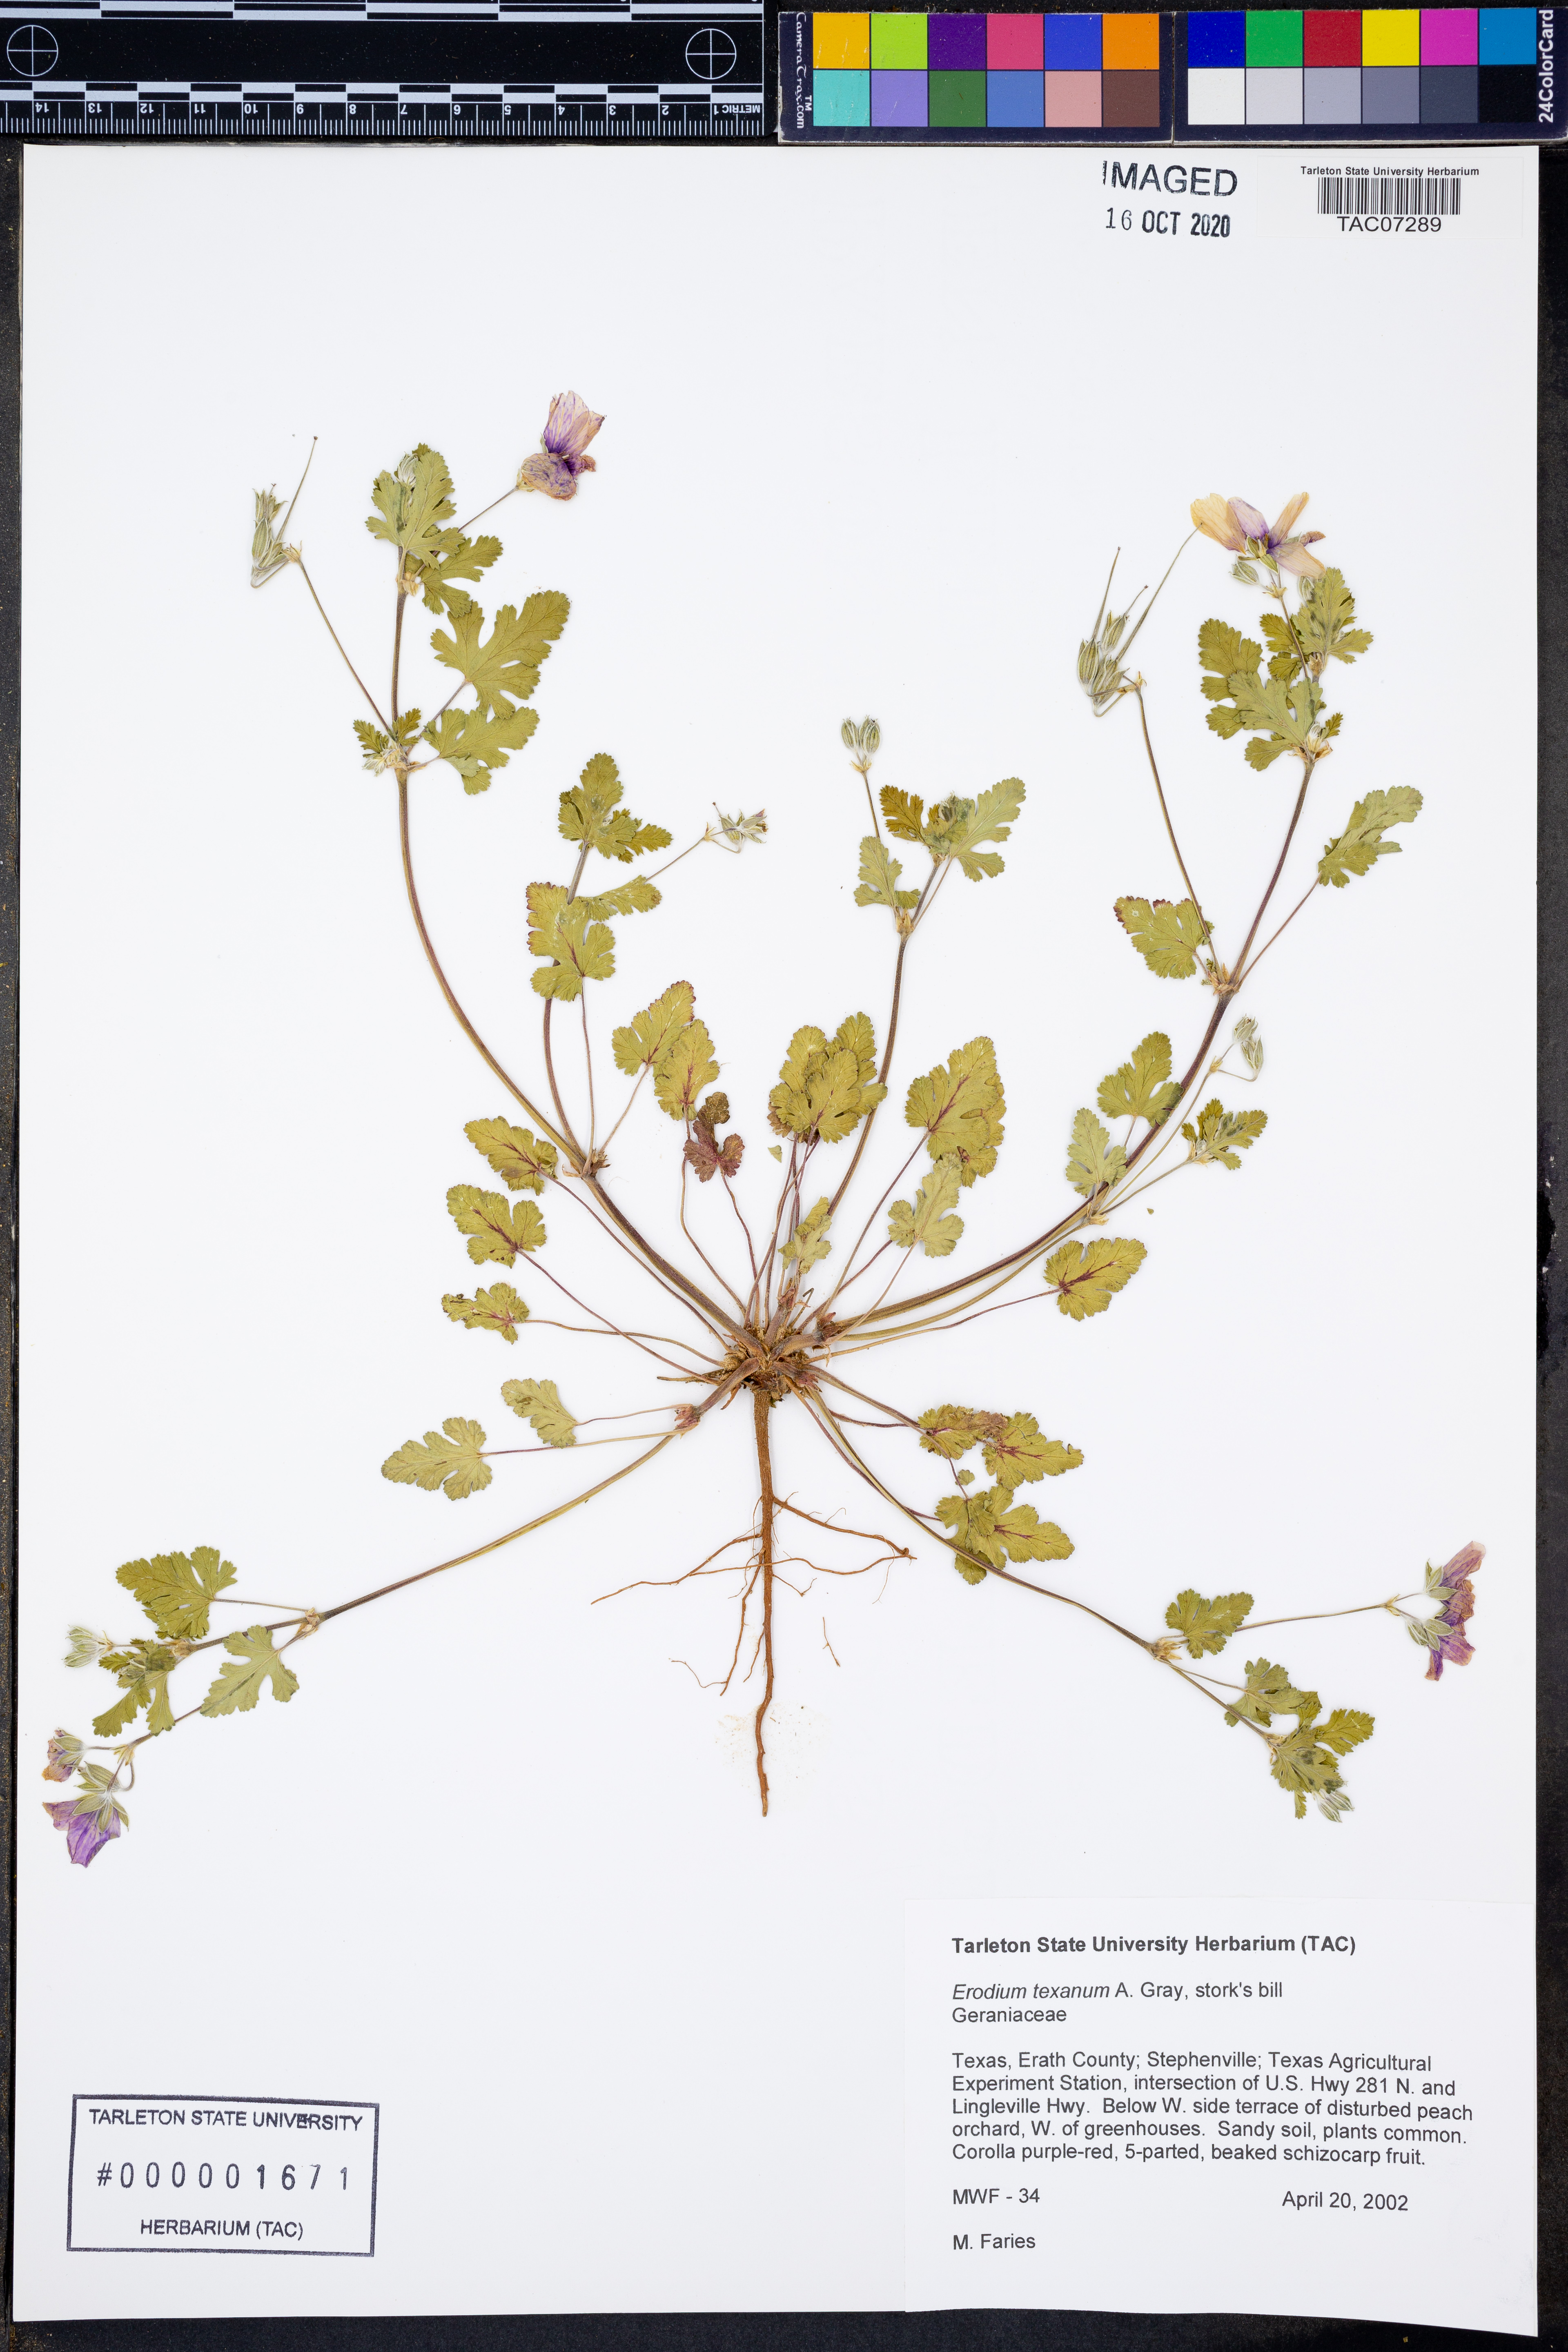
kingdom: Plantae
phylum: Tracheophyta
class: Magnoliopsida
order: Geraniales
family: Geraniaceae
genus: Erodium
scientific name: Erodium texanum
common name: Texas stork's-bill
